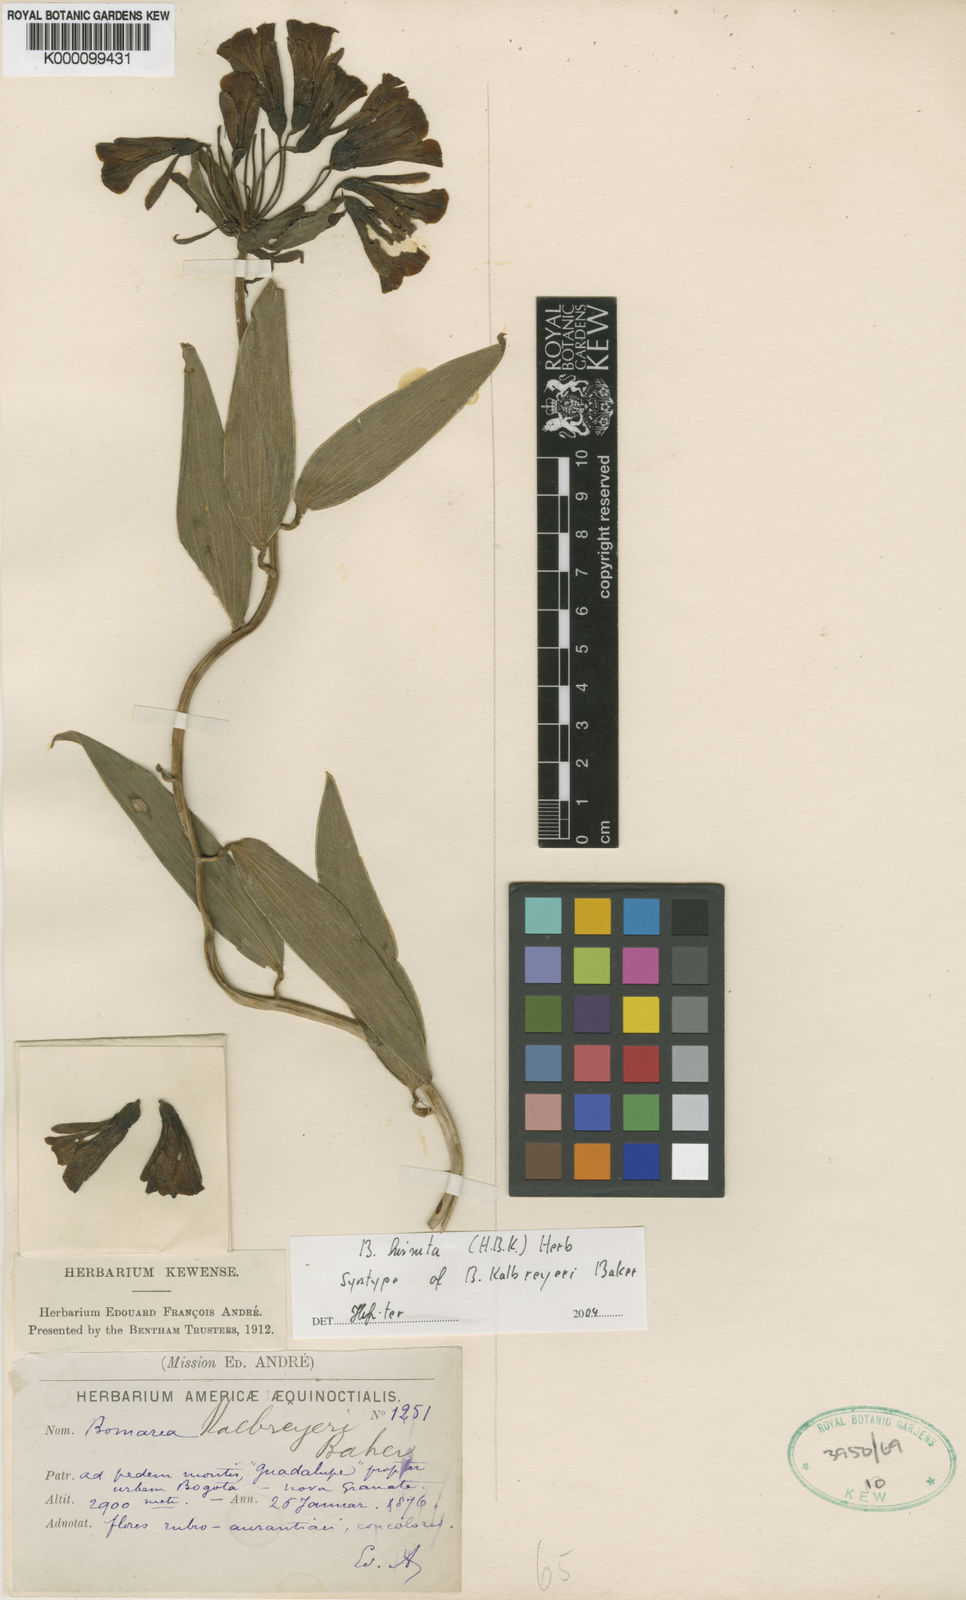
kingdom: Plantae
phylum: Tracheophyta
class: Liliopsida
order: Liliales
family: Alstroemeriaceae
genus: Bomarea
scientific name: Bomarea hirsuta
